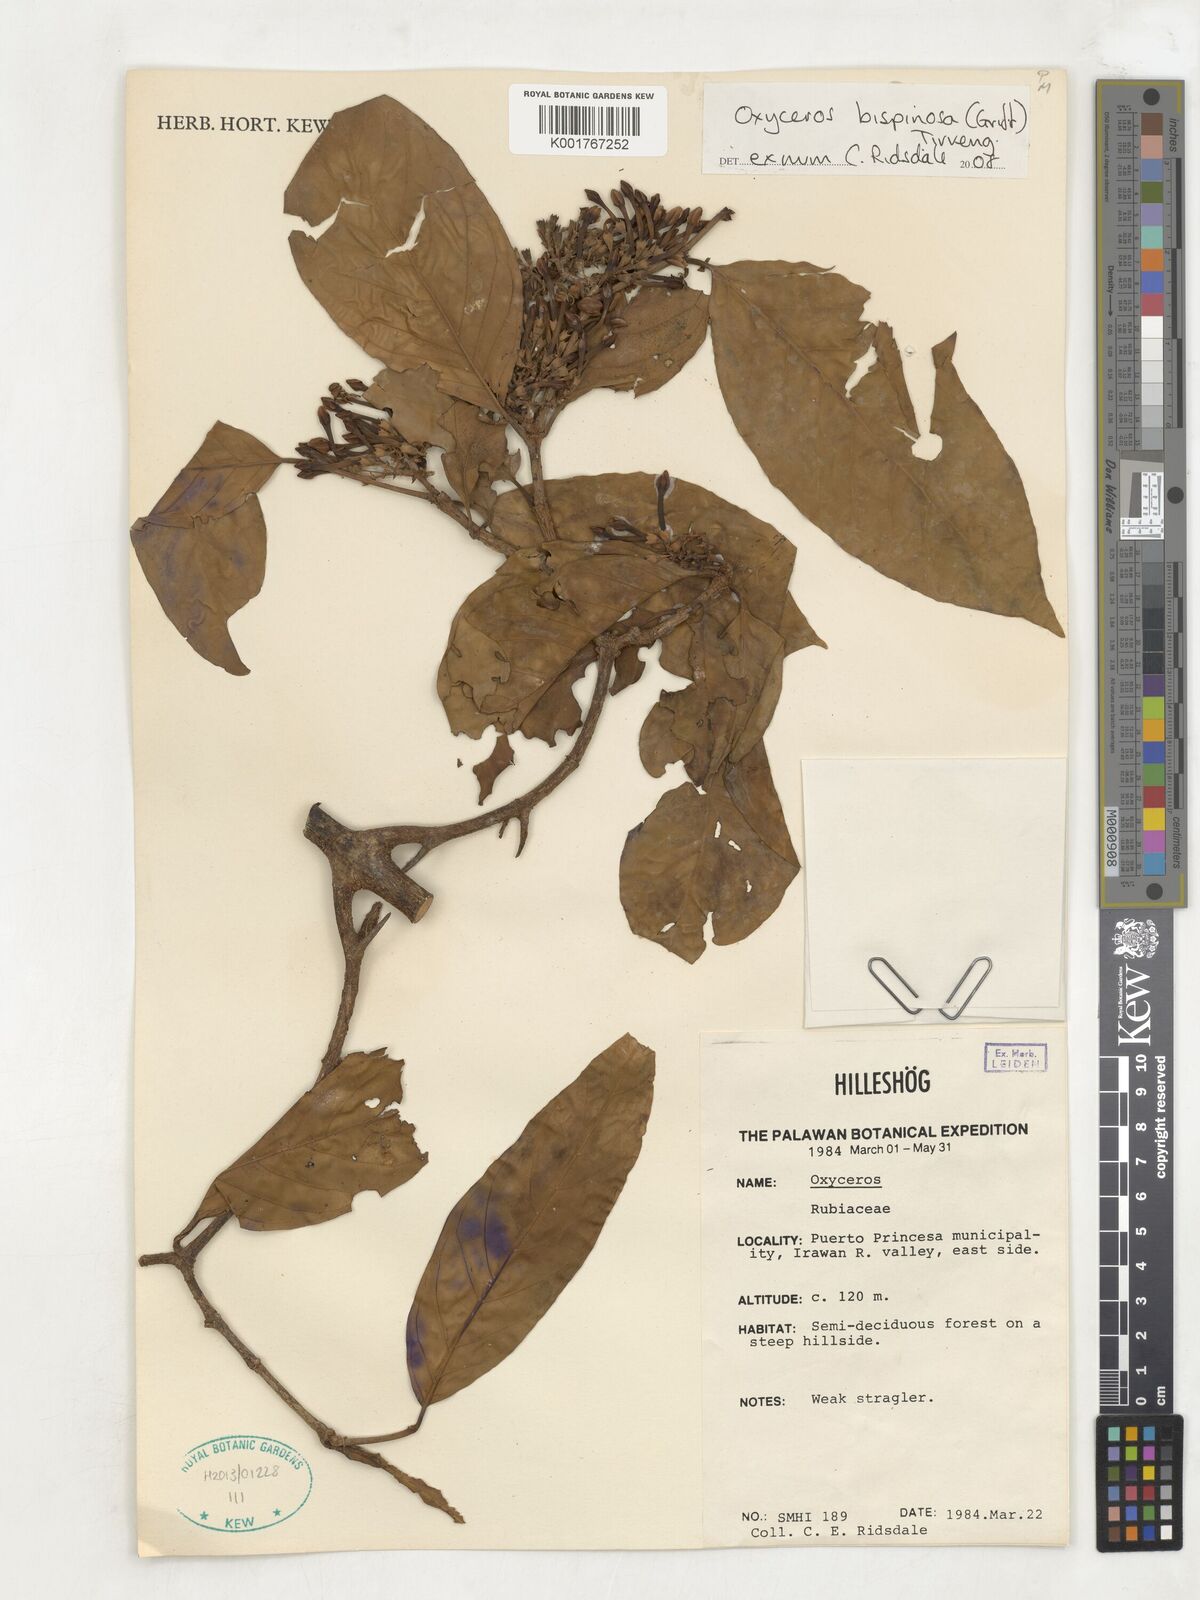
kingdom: Plantae
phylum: Tracheophyta
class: Magnoliopsida
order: Gentianales
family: Rubiaceae
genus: Oxyceros
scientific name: Oxyceros bispinosus
